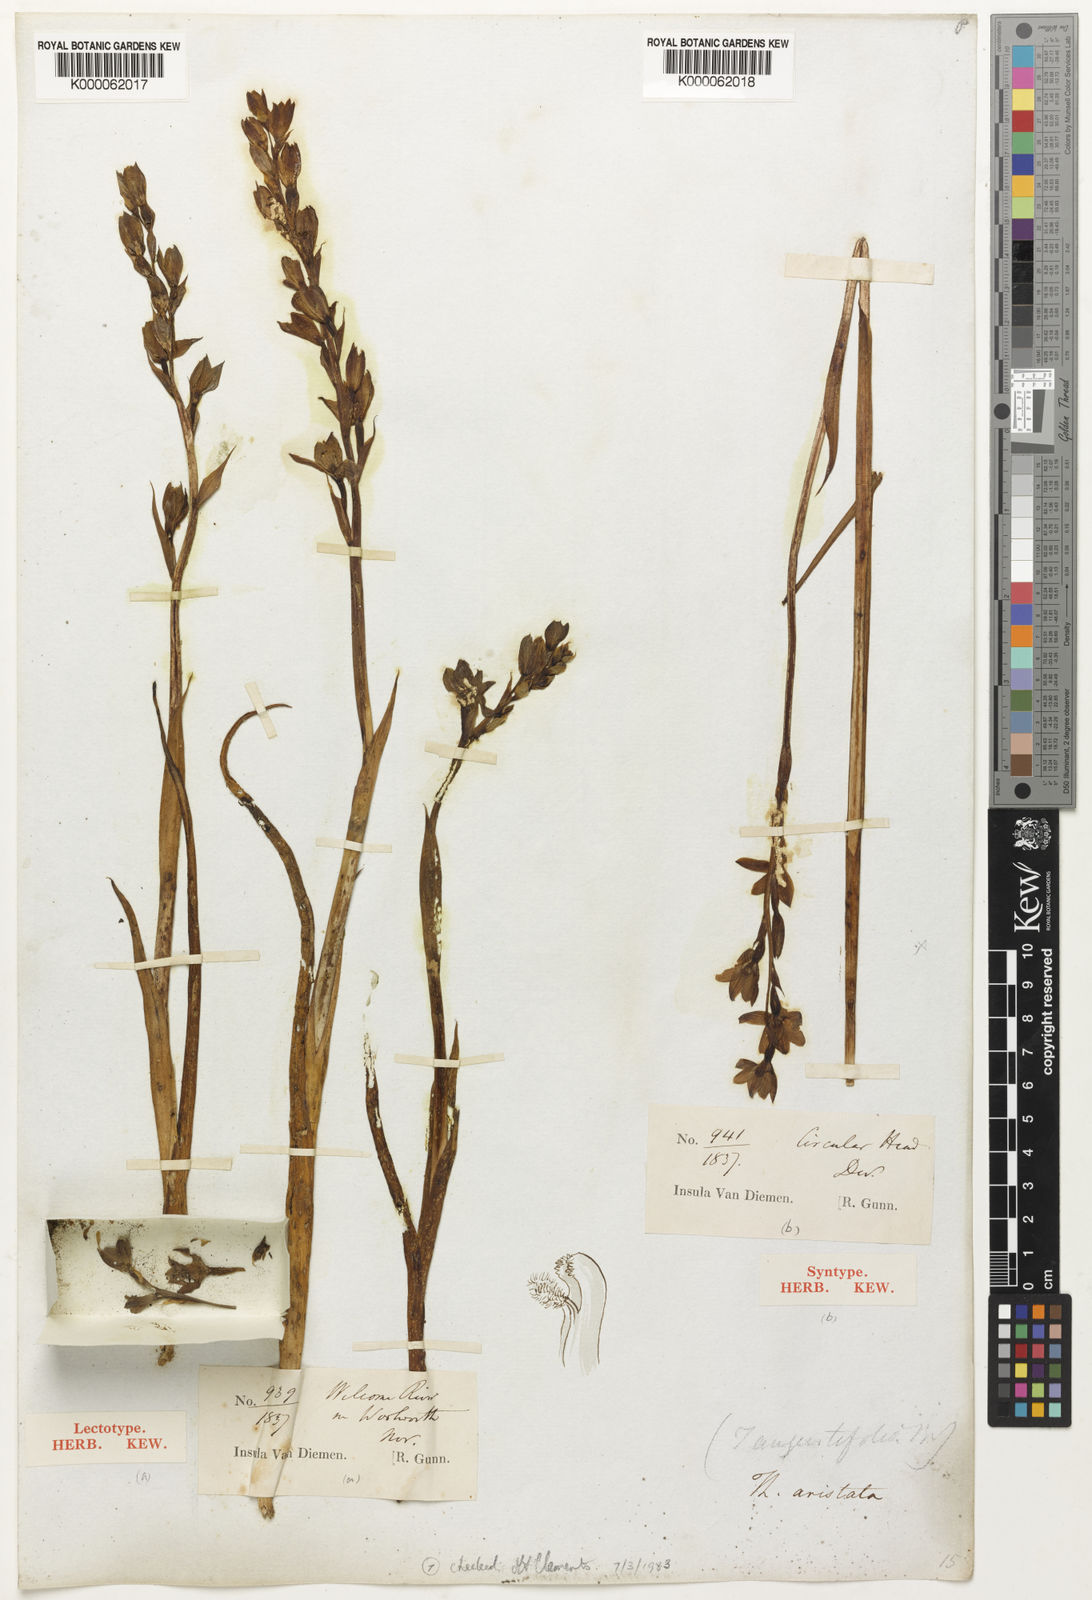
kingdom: Plantae
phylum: Tracheophyta
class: Liliopsida
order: Asparagales
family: Orchidaceae
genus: Thelymitra
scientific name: Thelymitra aristata
